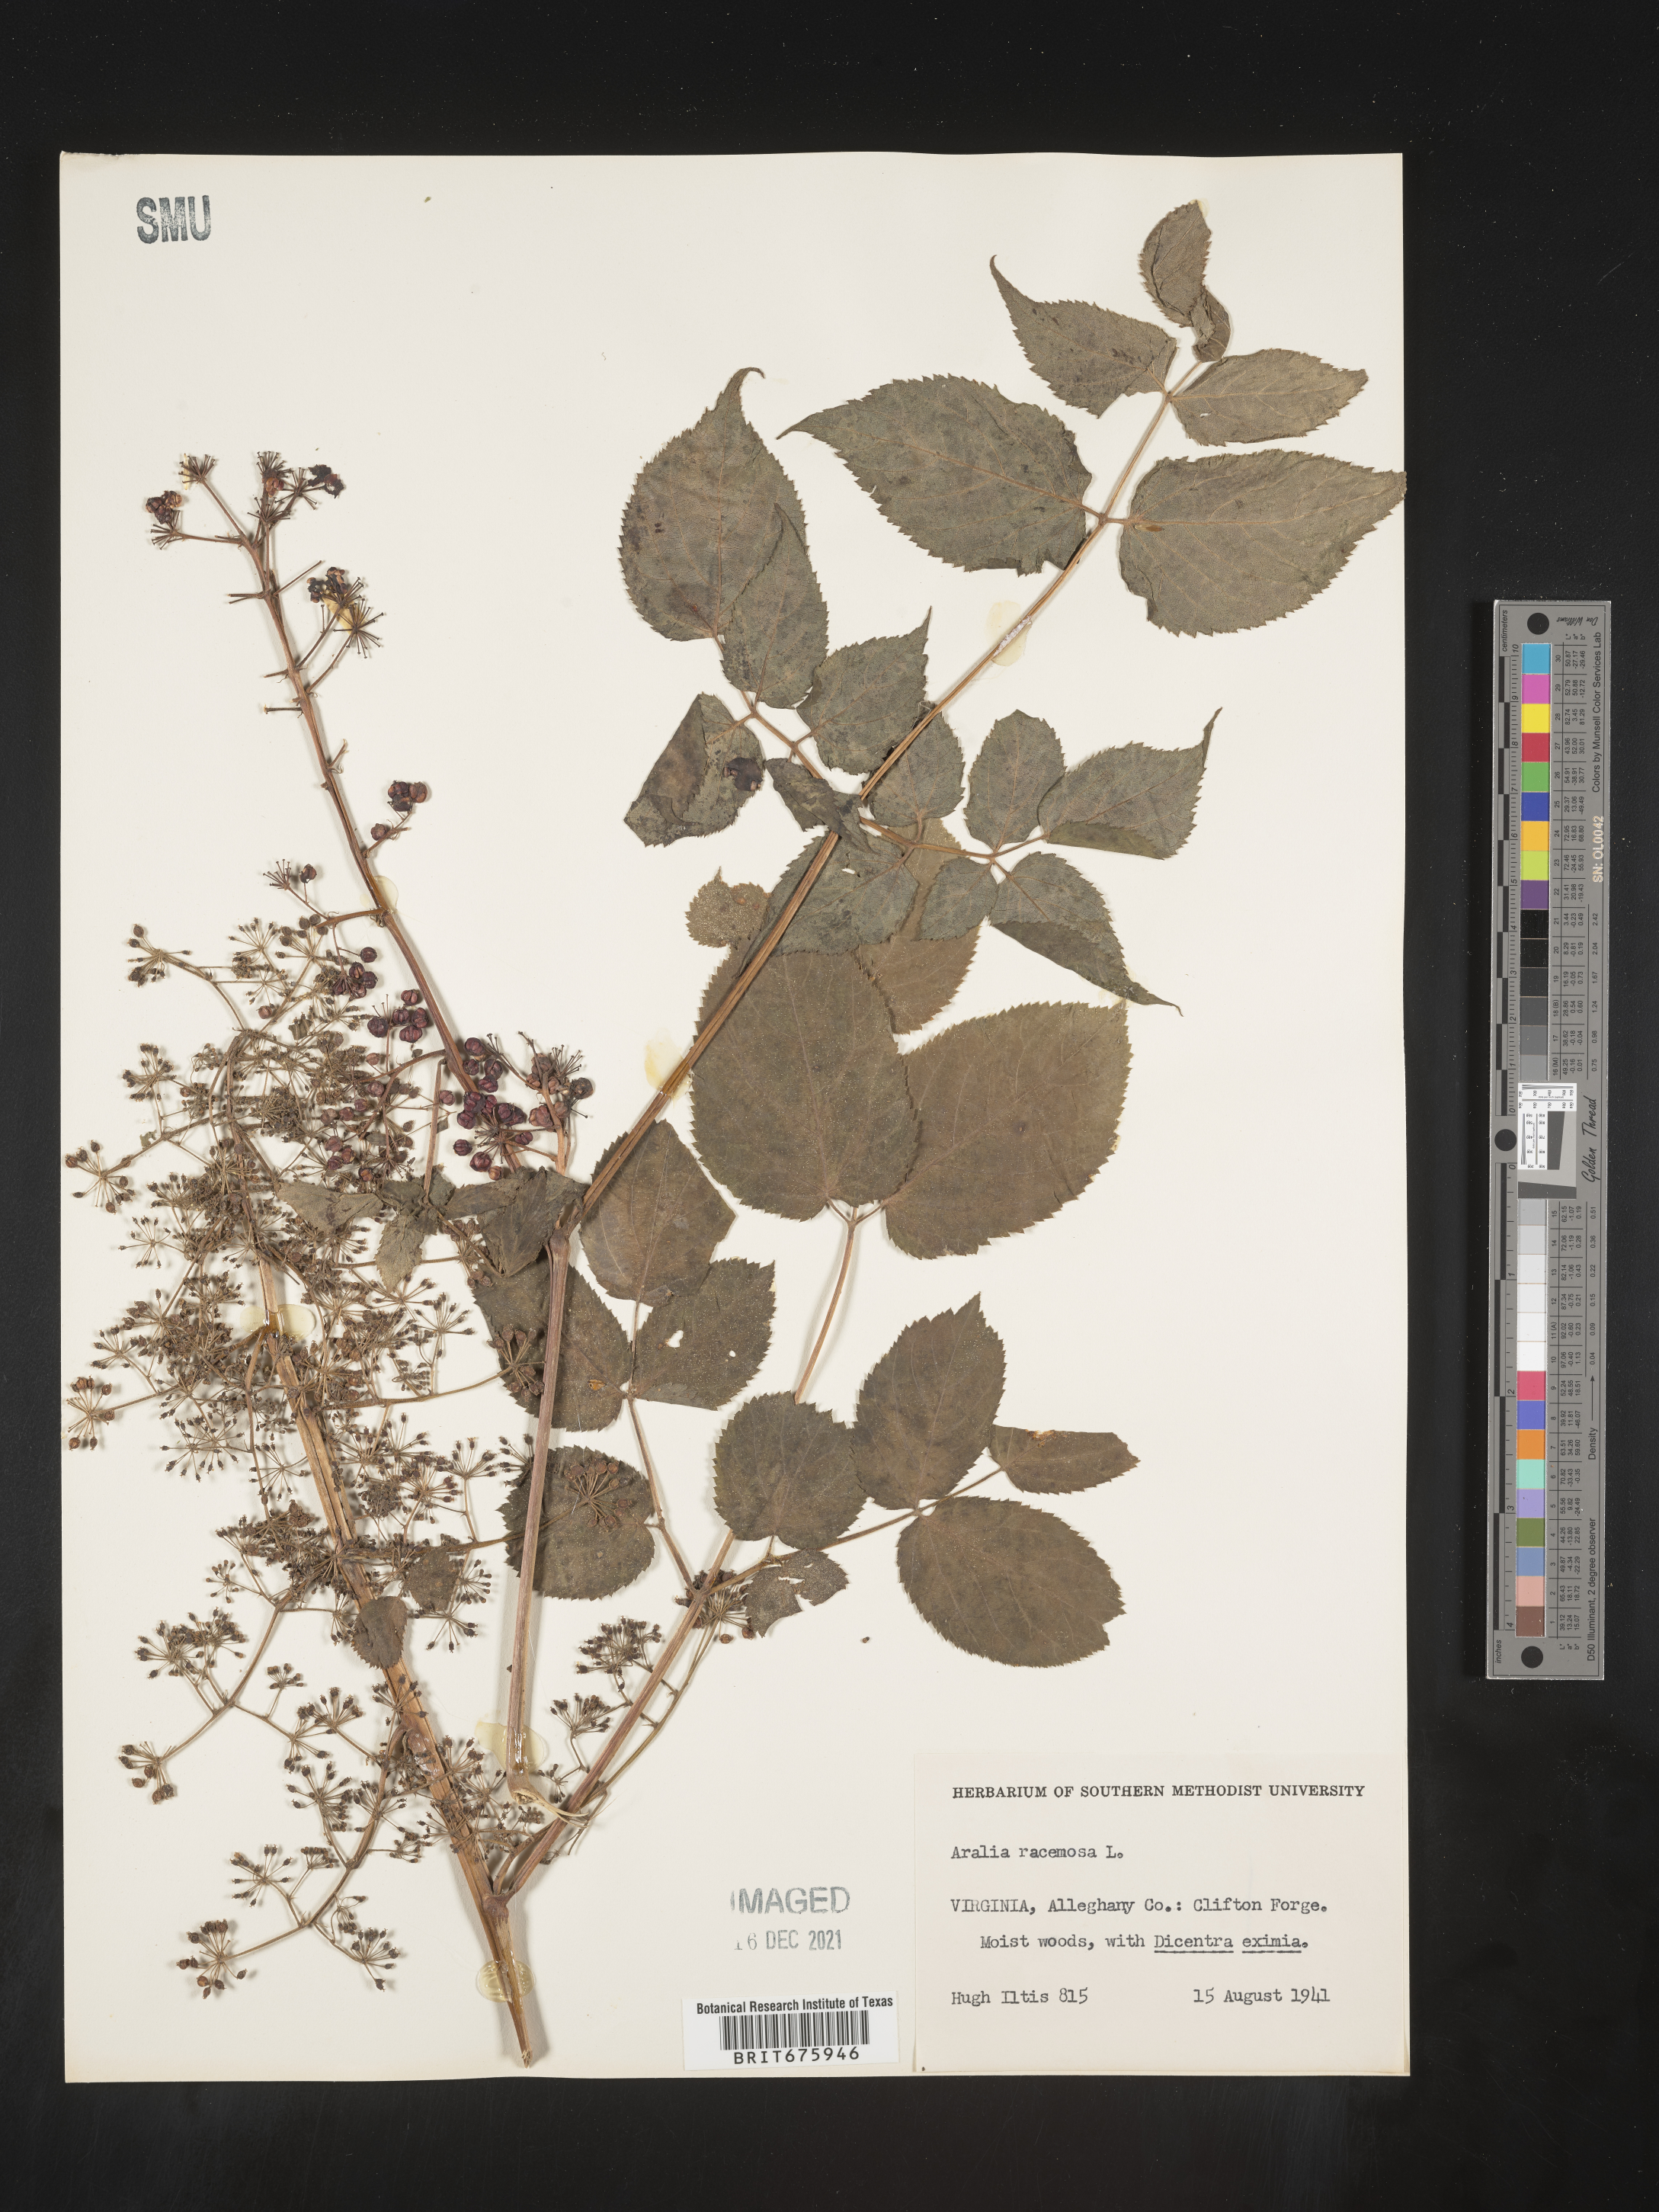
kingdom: Plantae
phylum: Tracheophyta
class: Magnoliopsida
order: Apiales
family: Araliaceae
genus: Aralia
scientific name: Aralia racemosa
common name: American-spikenard
